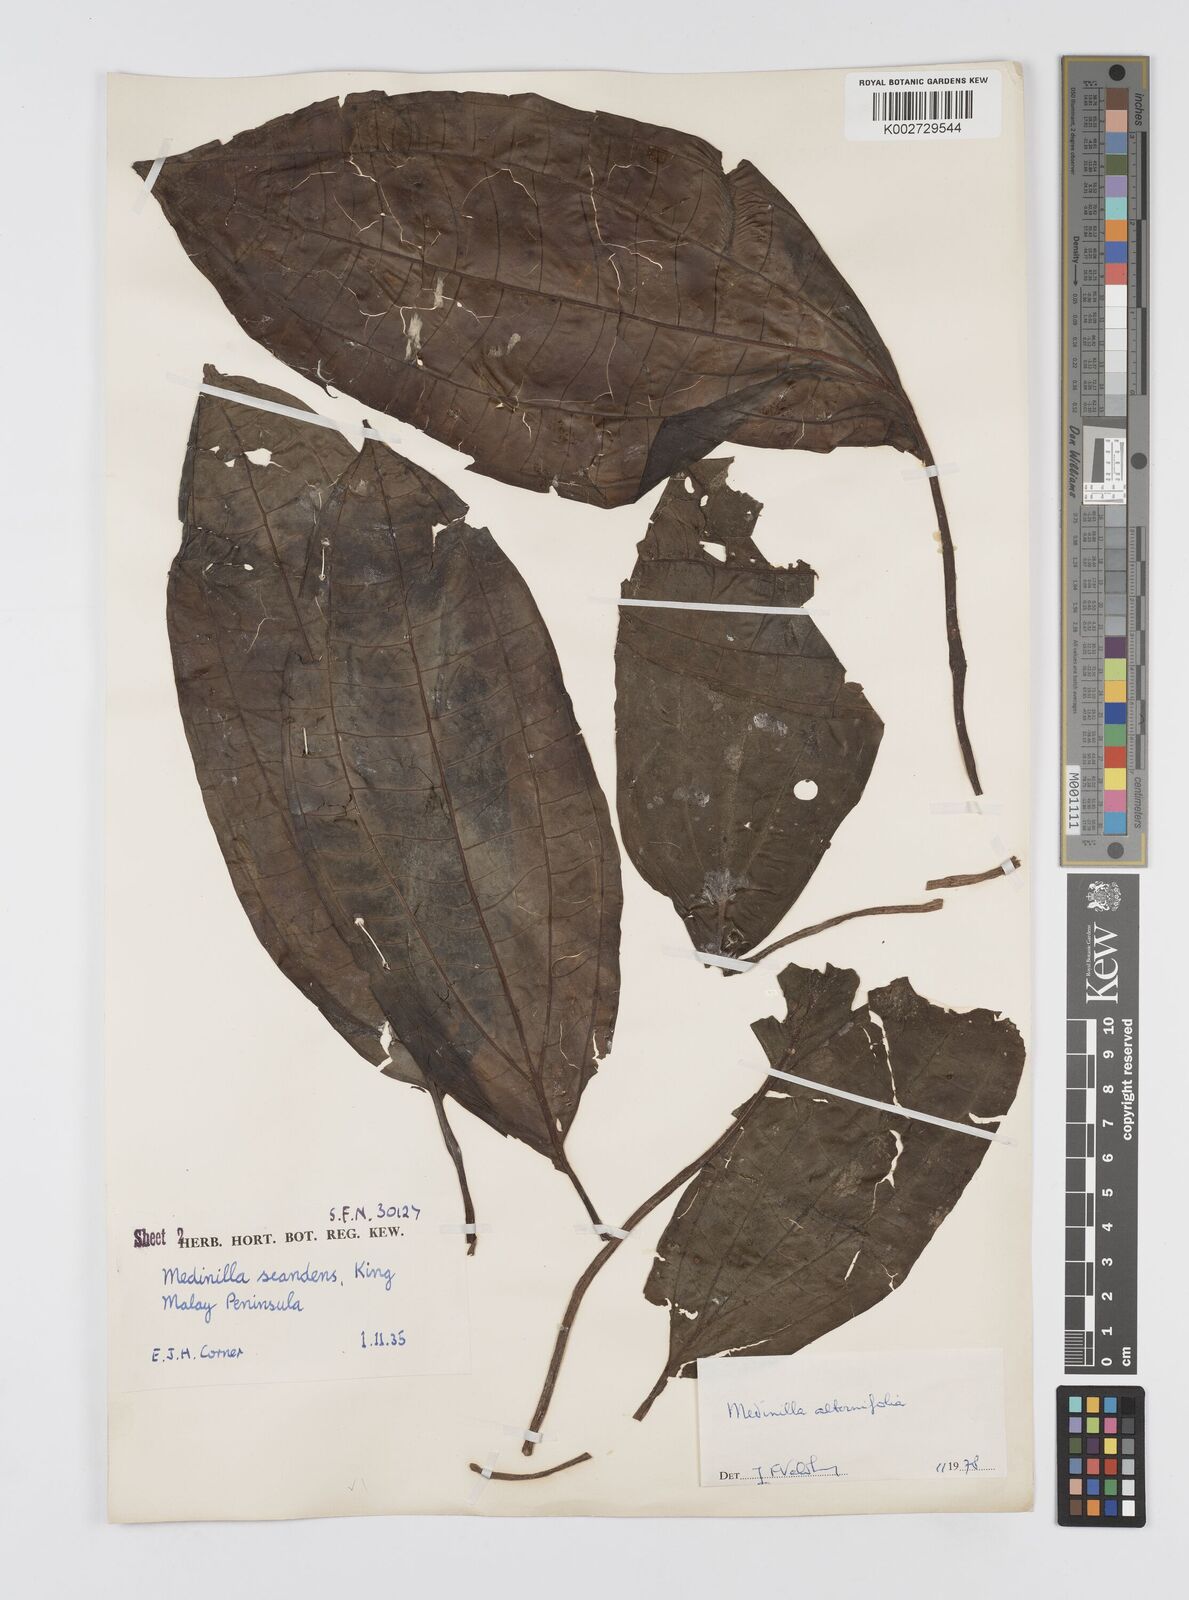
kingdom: Plantae
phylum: Tracheophyta
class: Magnoliopsida
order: Myrtales
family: Melastomataceae
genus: Heteroblemma
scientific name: Heteroblemma alternifolium
